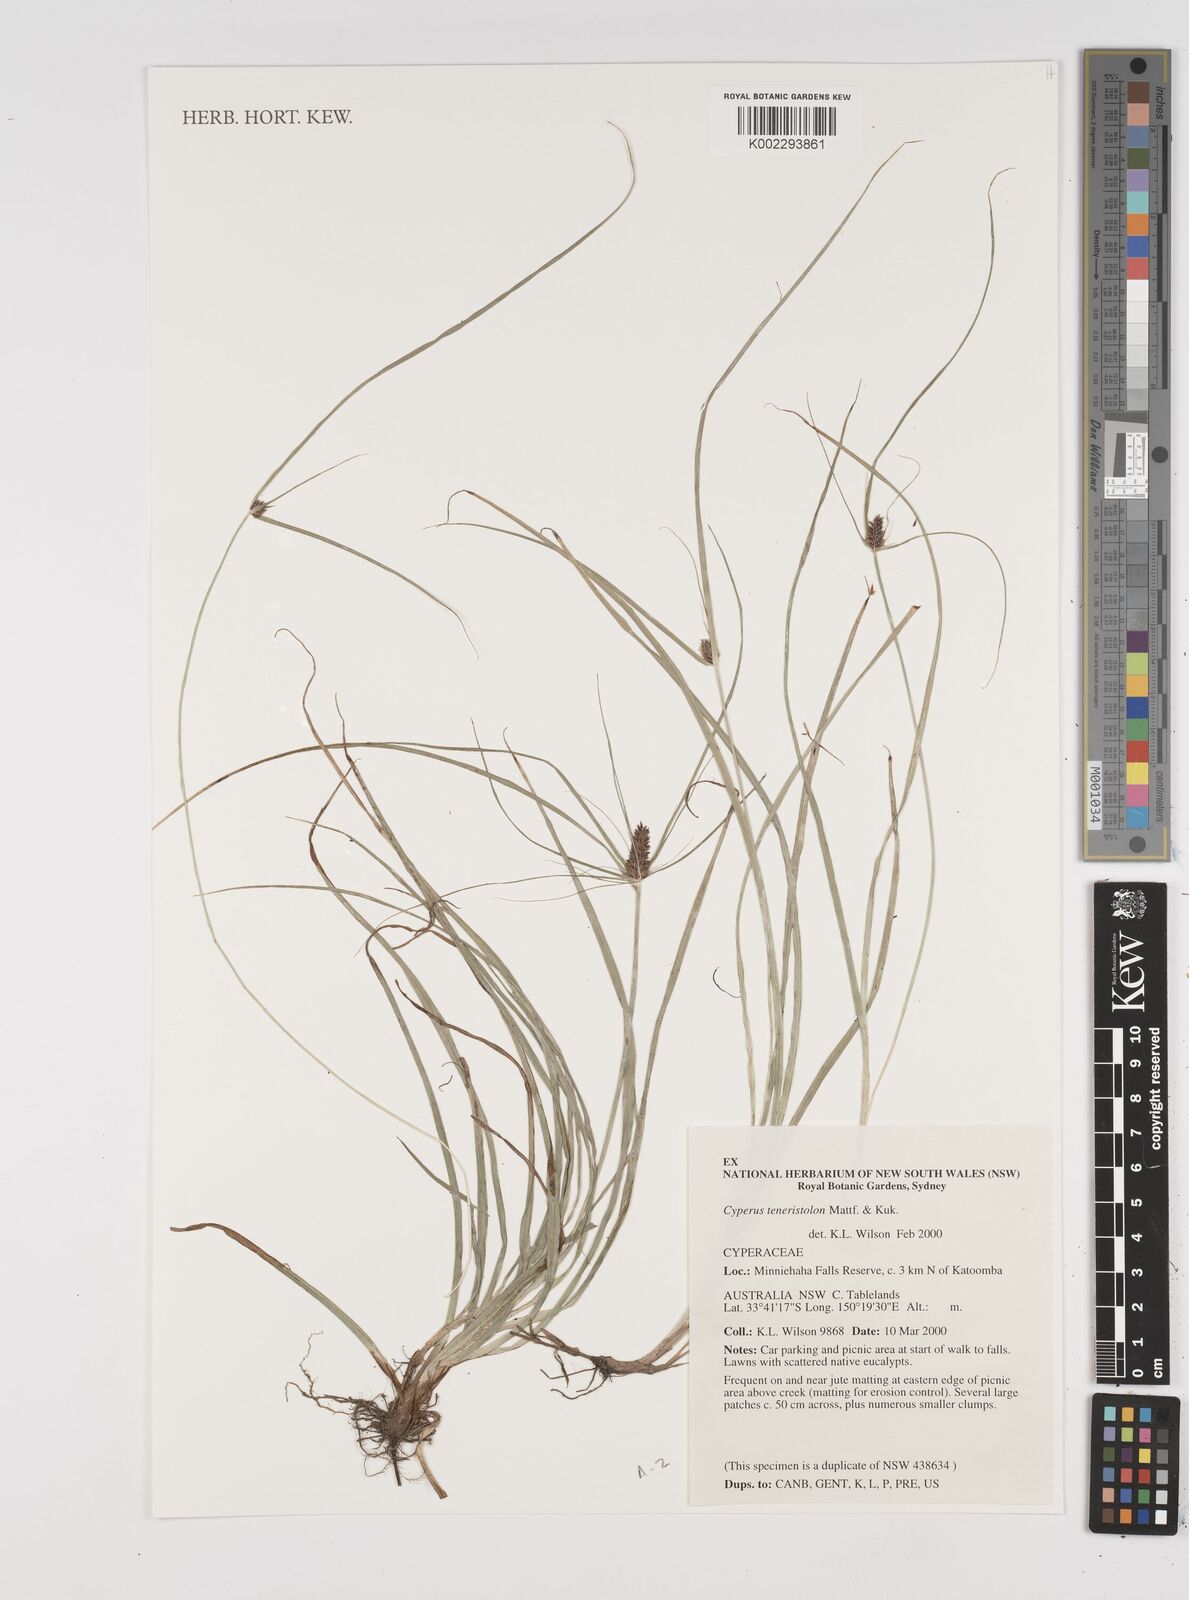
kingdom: Plantae
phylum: Tracheophyta
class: Liliopsida
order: Poales
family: Cyperaceae
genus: Cyperus
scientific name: Cyperus bracheilema
